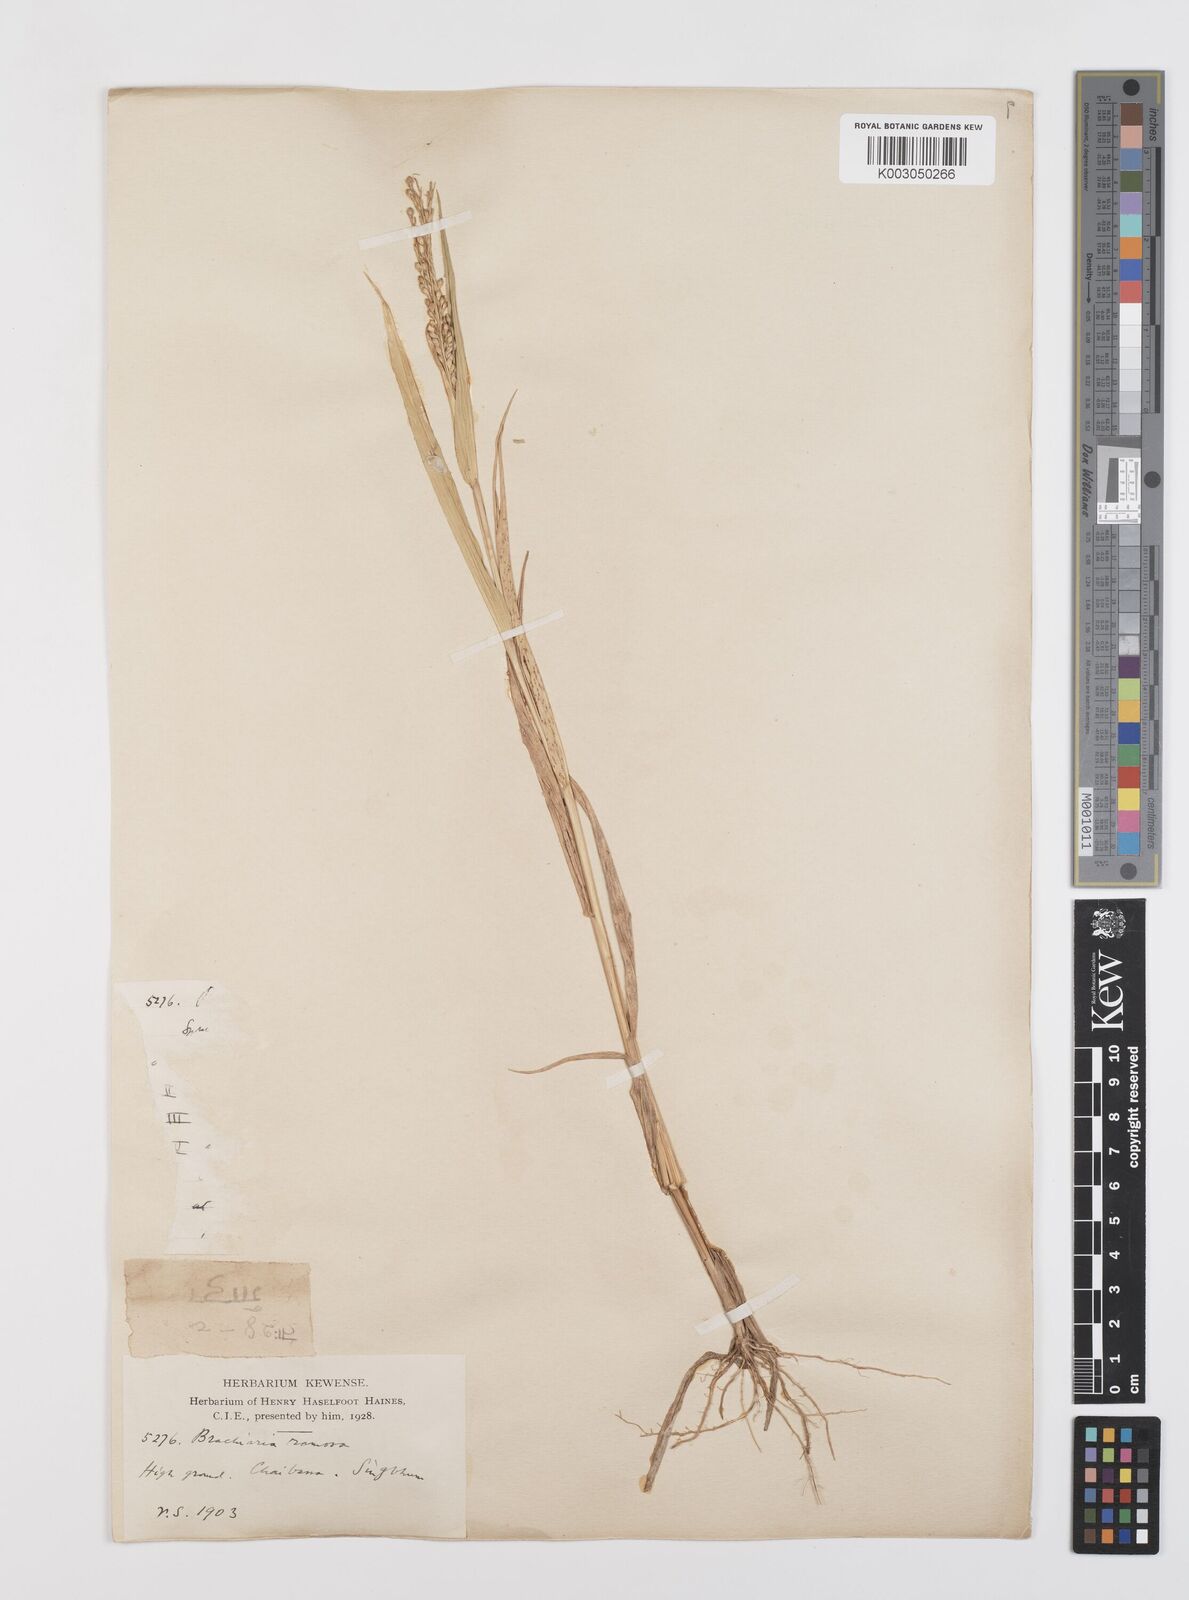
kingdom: Plantae
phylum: Tracheophyta
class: Liliopsida
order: Poales
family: Poaceae
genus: Urochloa
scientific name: Urochloa ramosa
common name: Browntop millet
